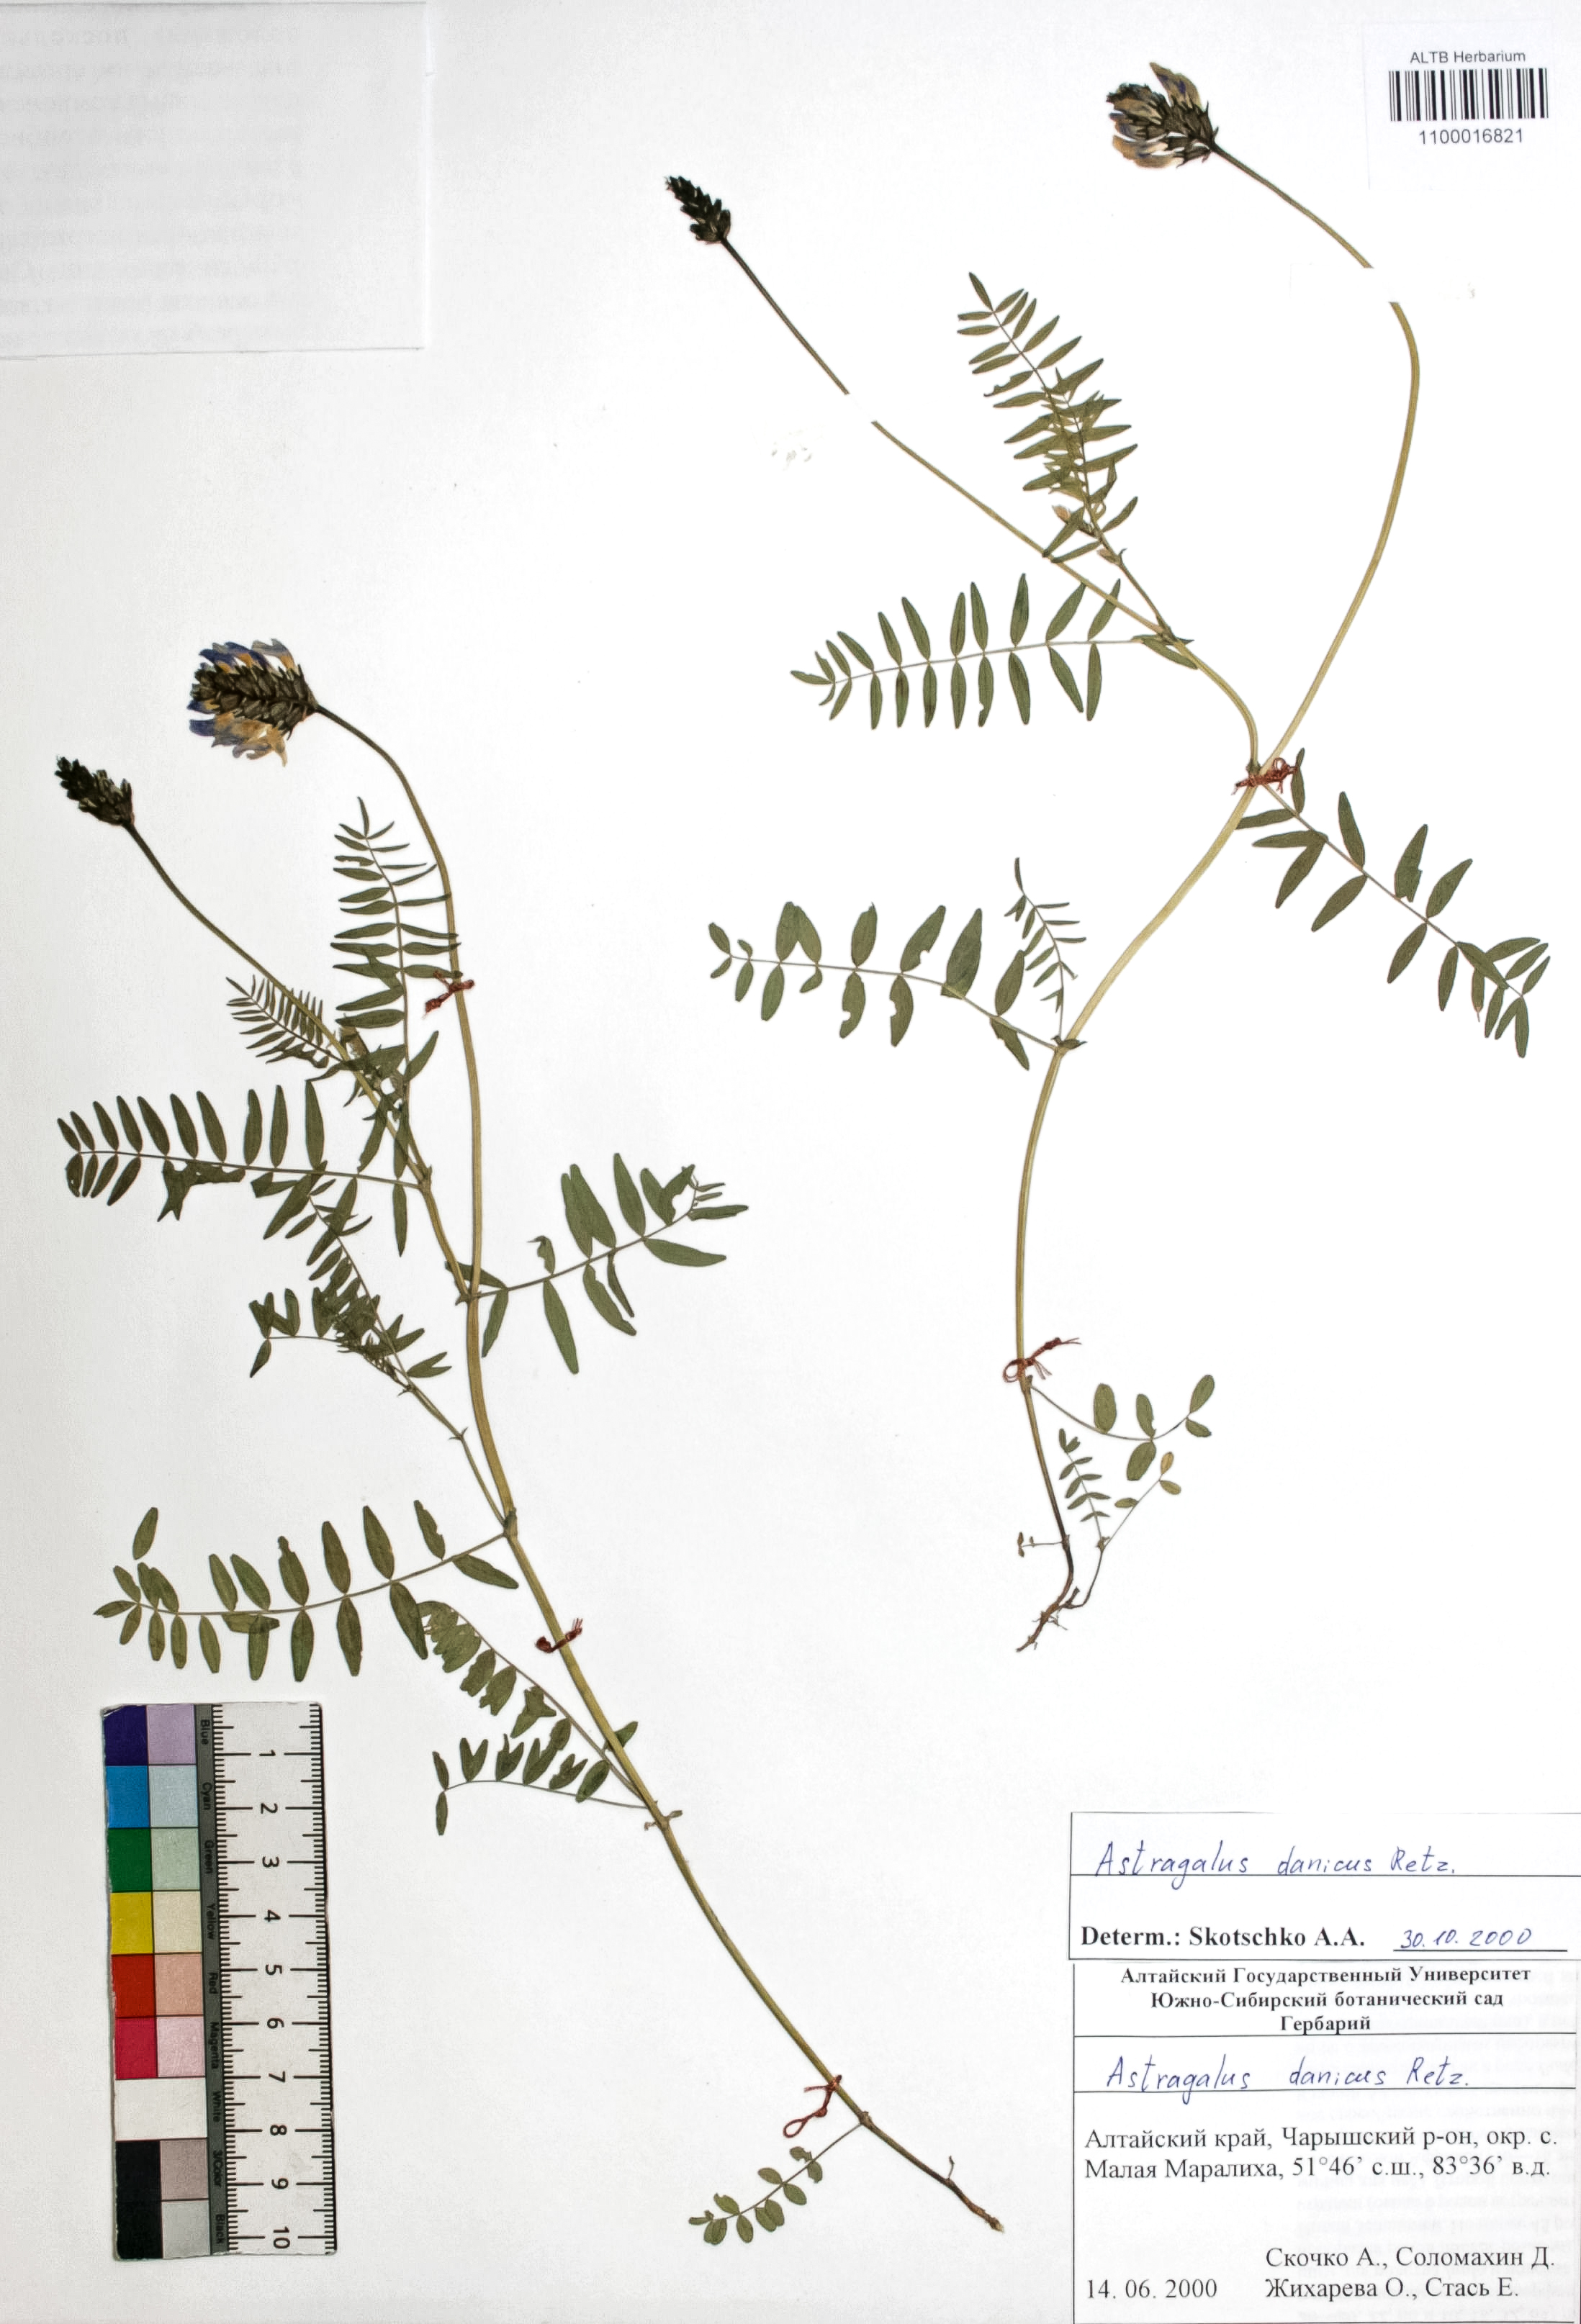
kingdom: Plantae
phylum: Tracheophyta
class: Magnoliopsida
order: Fabales
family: Fabaceae
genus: Astragalus
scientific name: Astragalus danicus
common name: Purple milk-vetch
